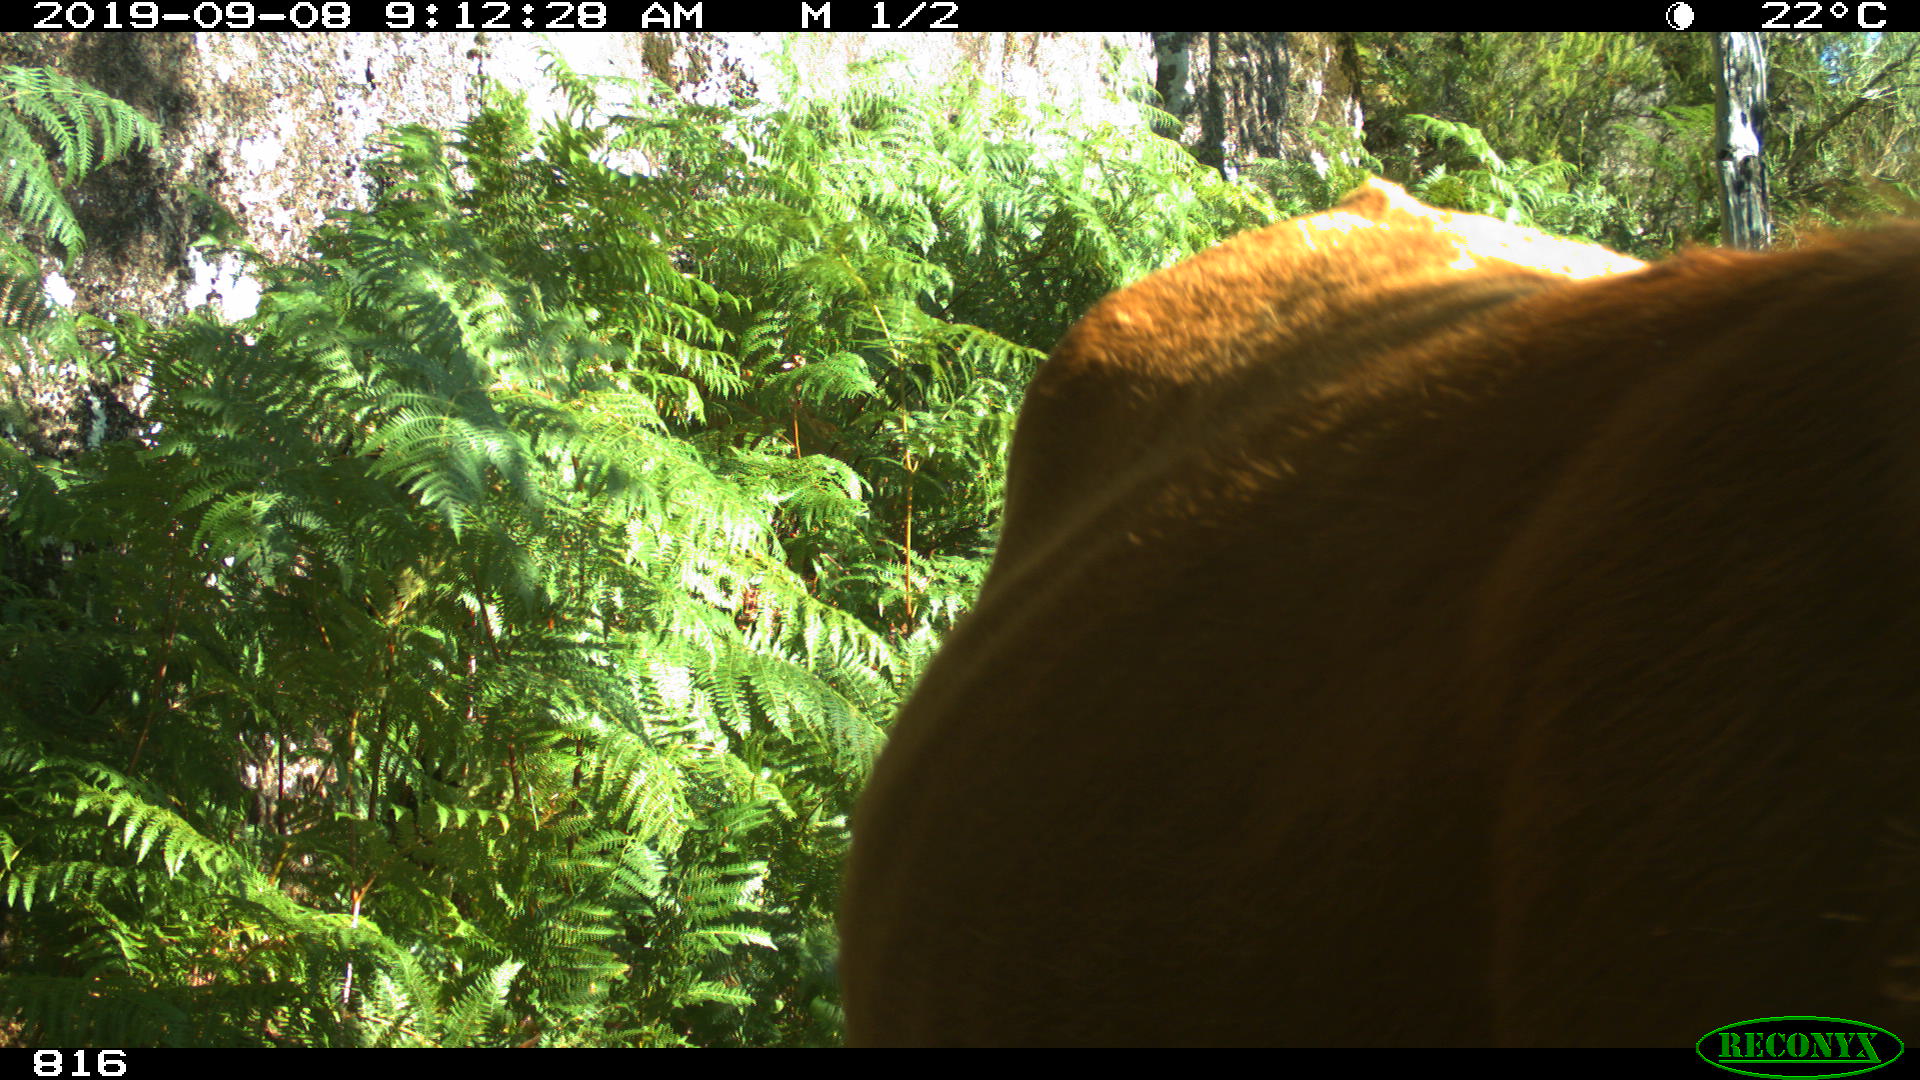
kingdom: Animalia
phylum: Chordata
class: Mammalia
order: Artiodactyla
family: Bovidae
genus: Bos
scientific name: Bos taurus
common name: Domesticated cattle
